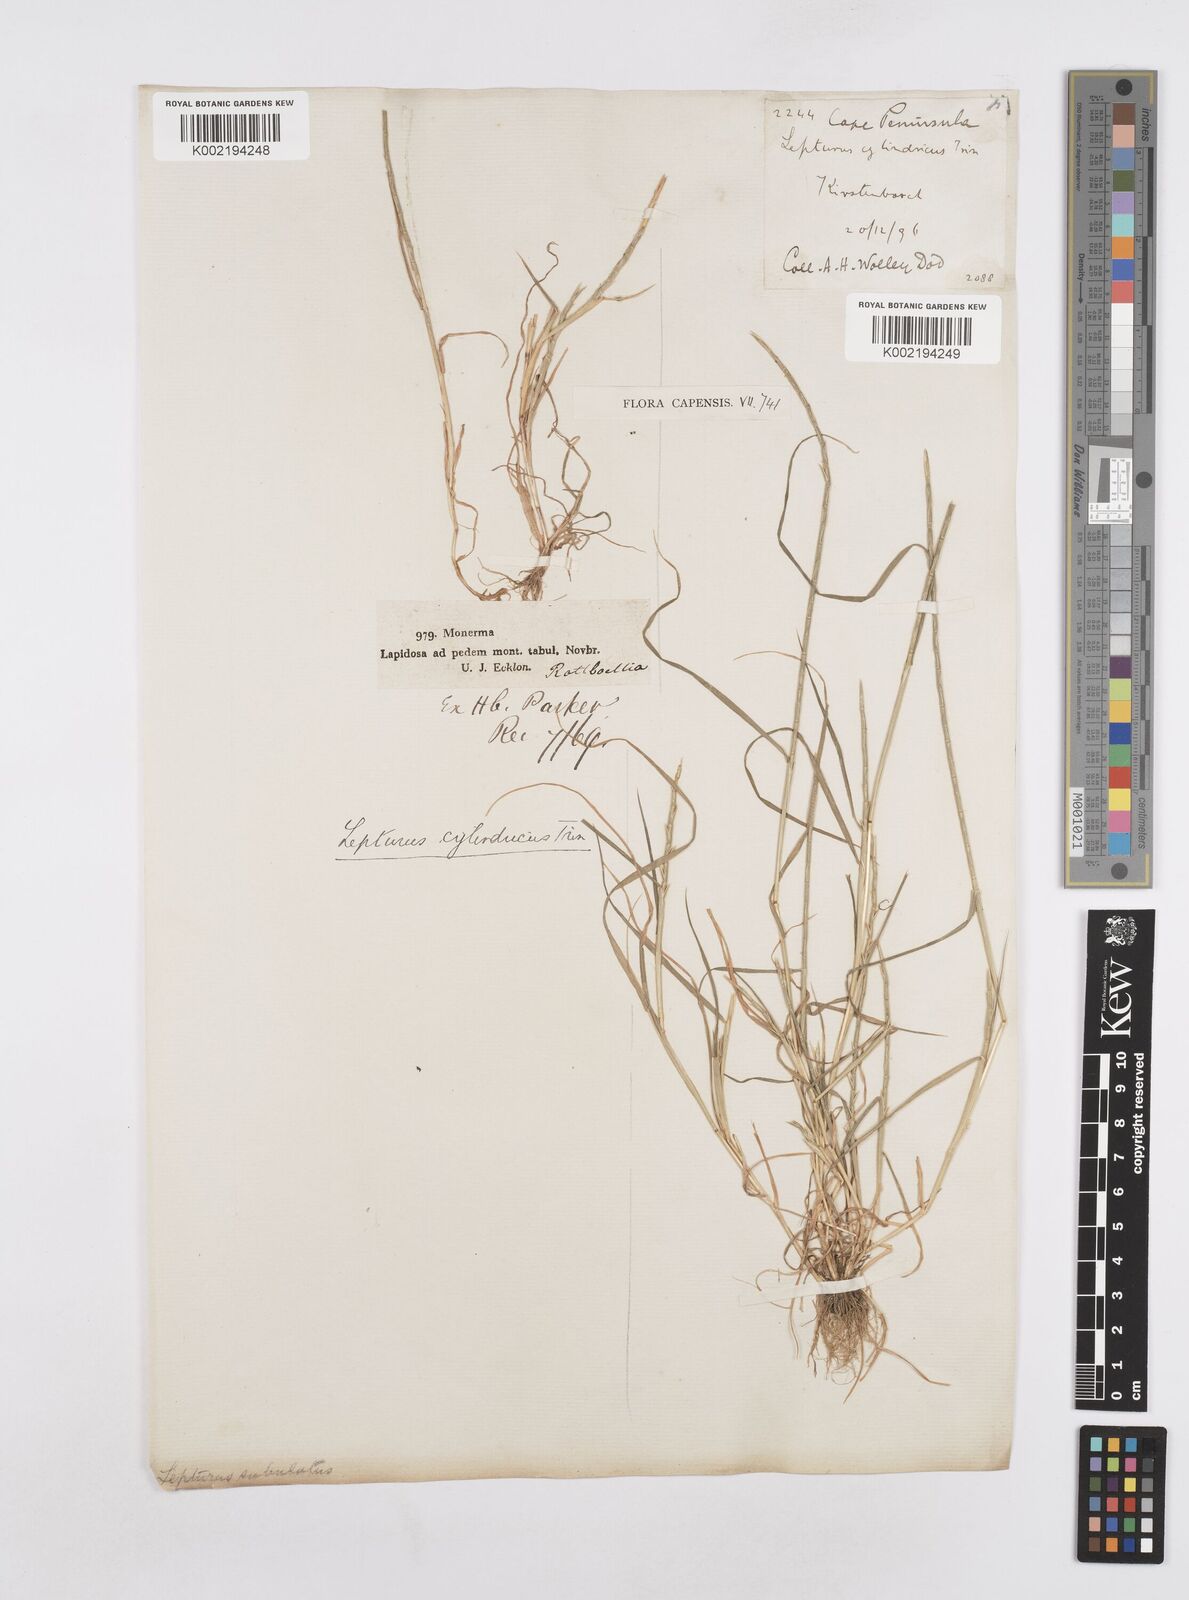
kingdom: Plantae
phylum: Tracheophyta
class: Liliopsida
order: Poales
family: Poaceae
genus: Parapholis
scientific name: Parapholis cylindrica
